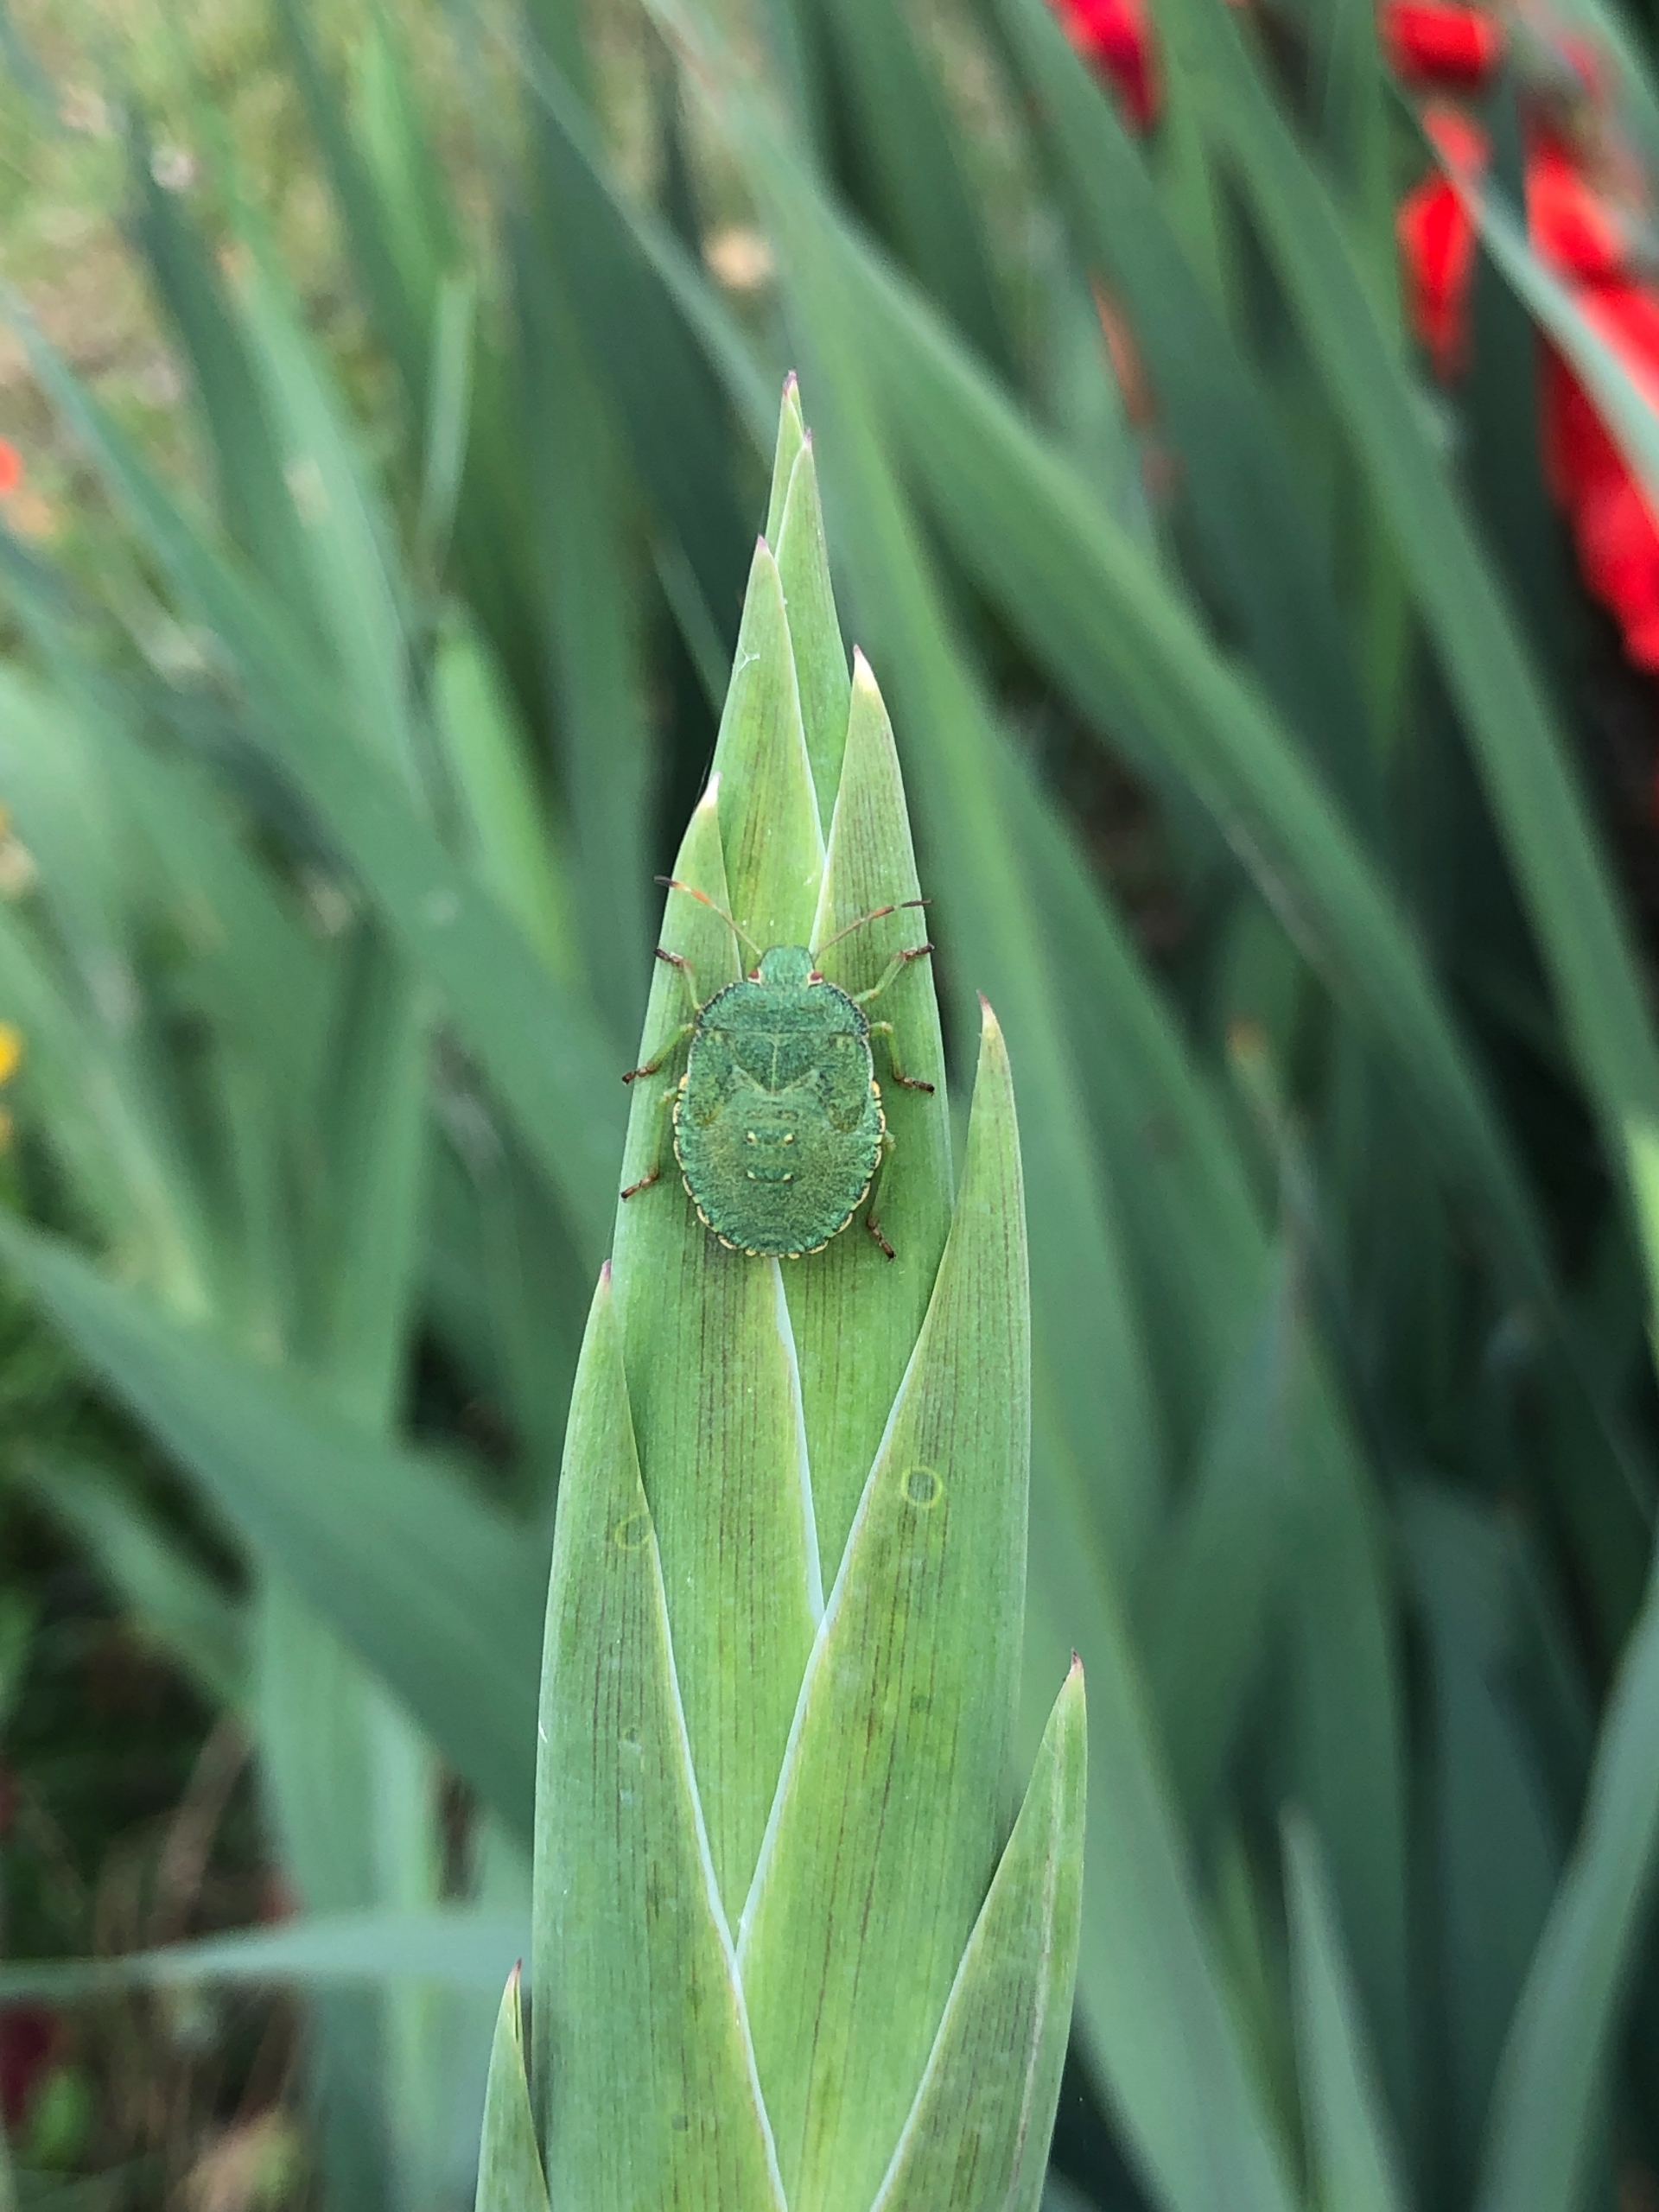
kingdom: Animalia
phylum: Arthropoda
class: Insecta
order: Hemiptera
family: Pentatomidae
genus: Palomena
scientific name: Palomena prasina
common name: Grøn bredtæge
